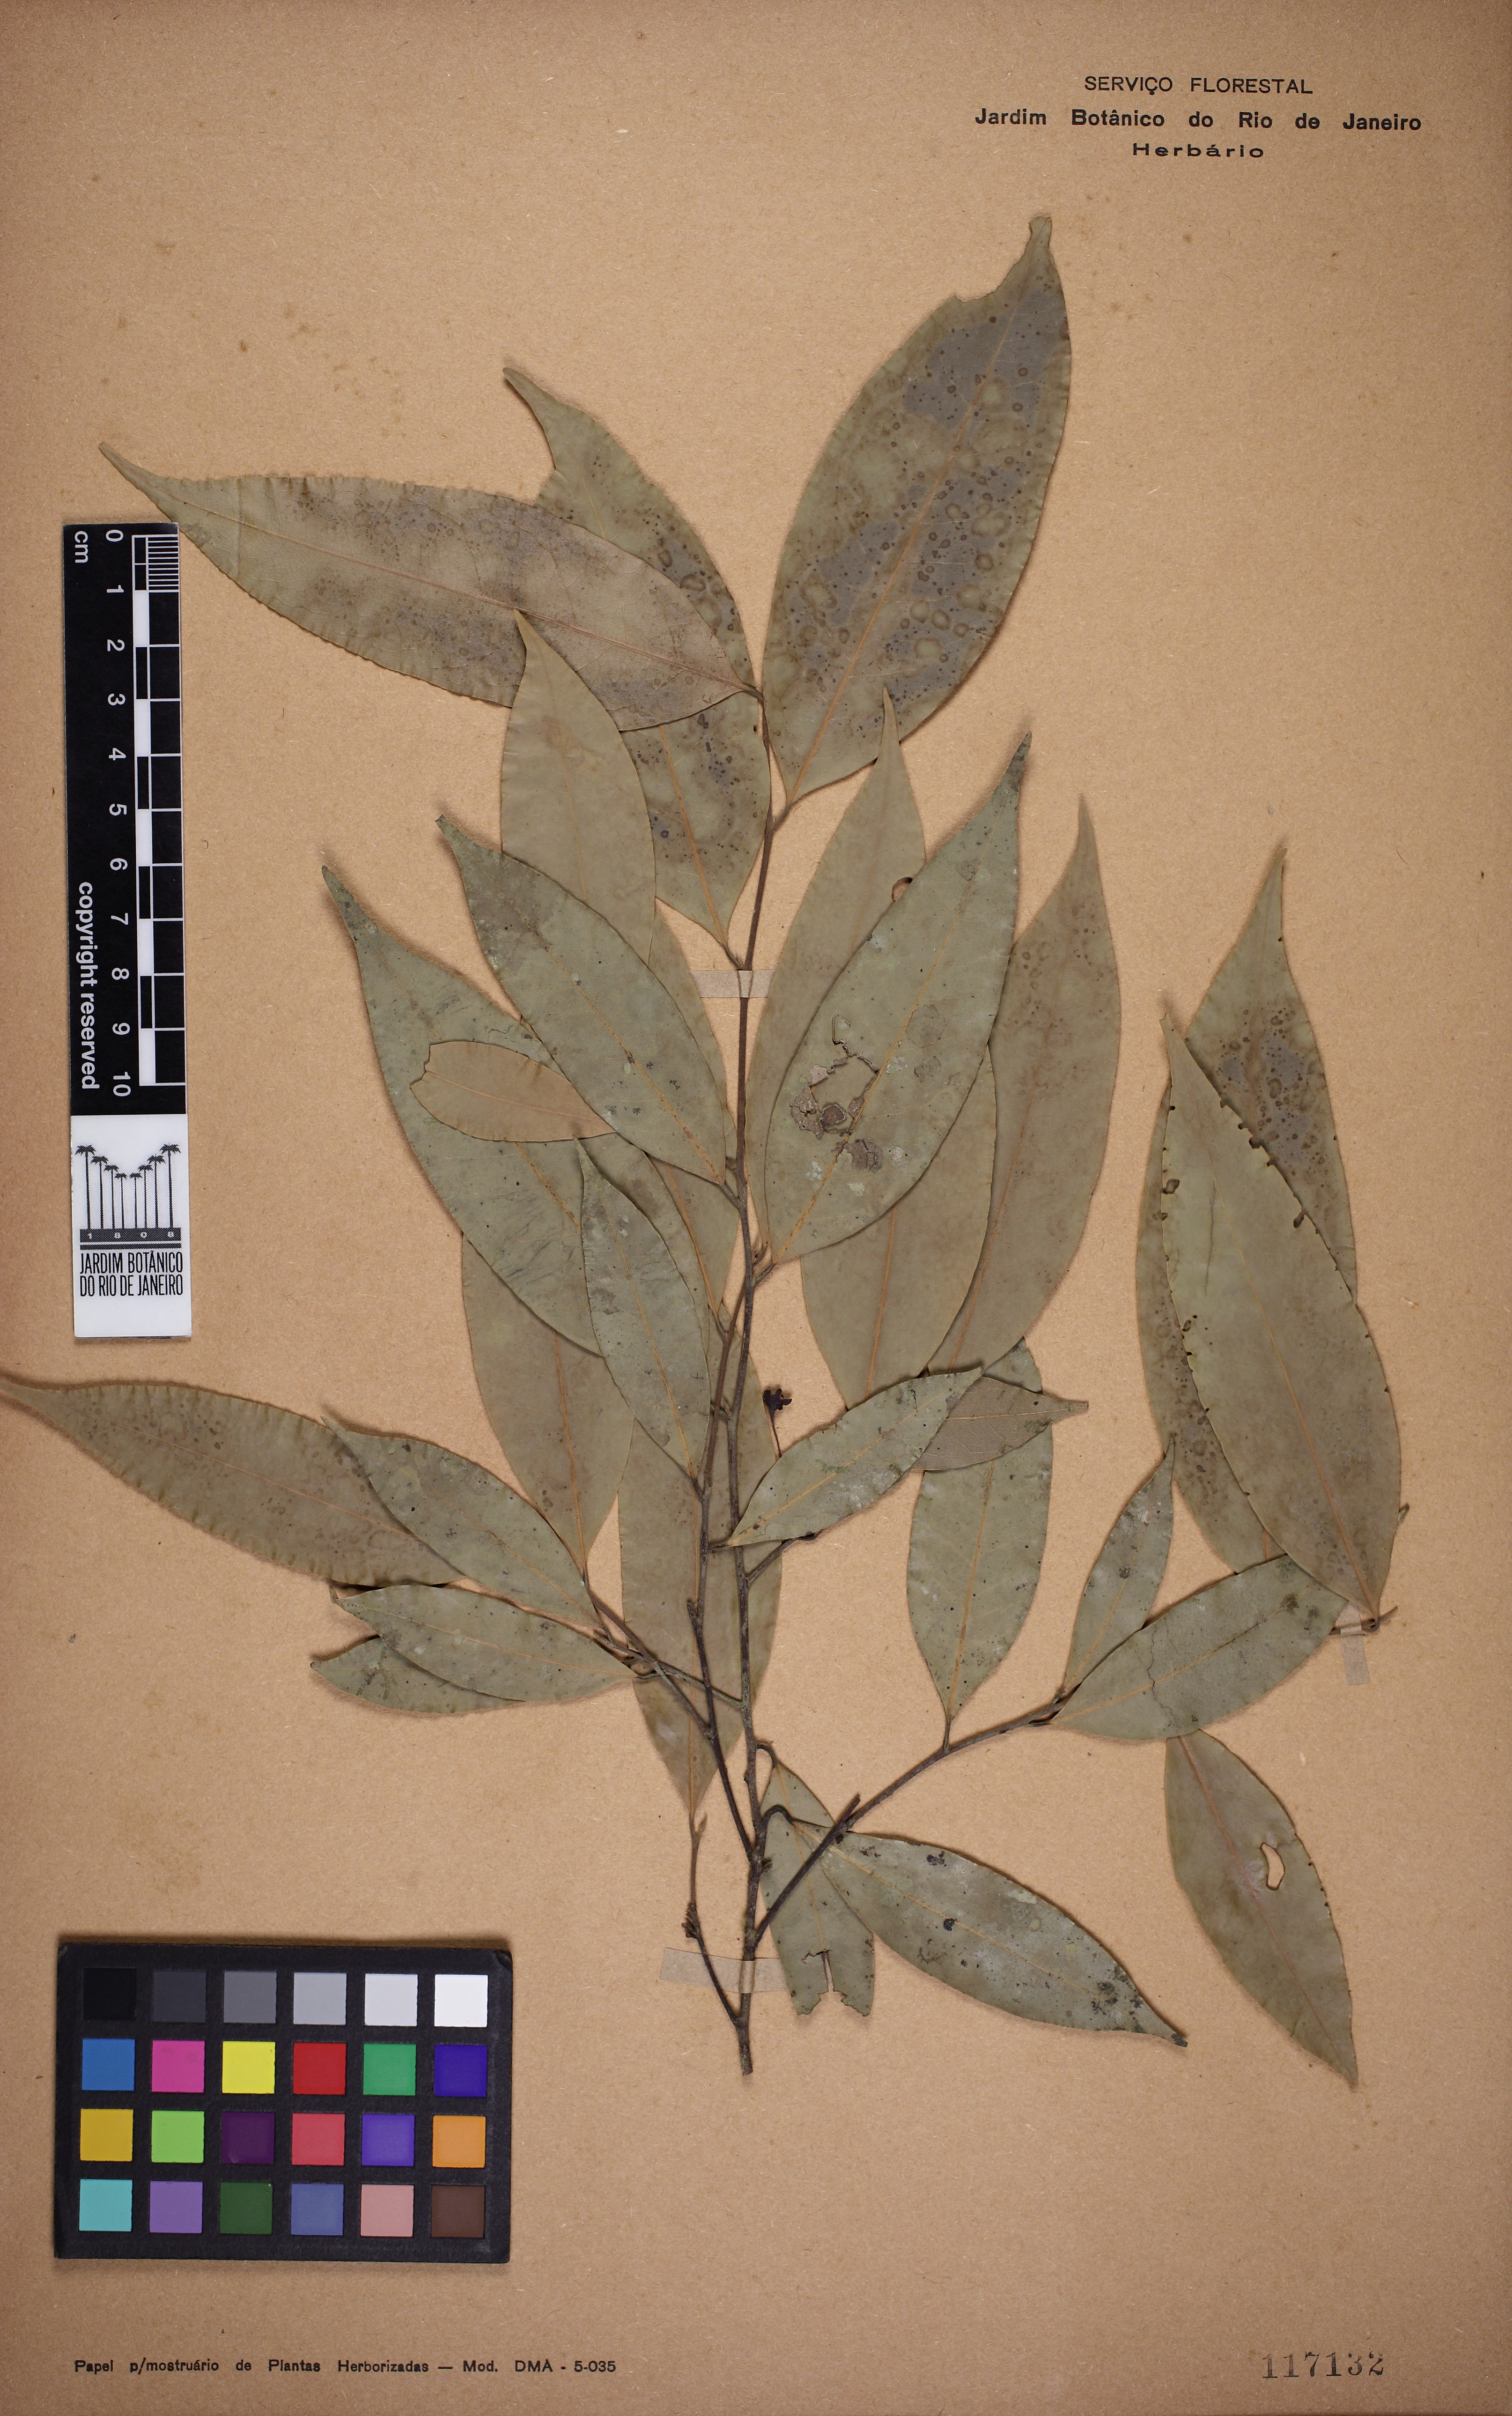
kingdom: Plantae
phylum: Tracheophyta
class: Magnoliopsida
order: Laurales
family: Lauraceae
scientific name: Lauraceae
